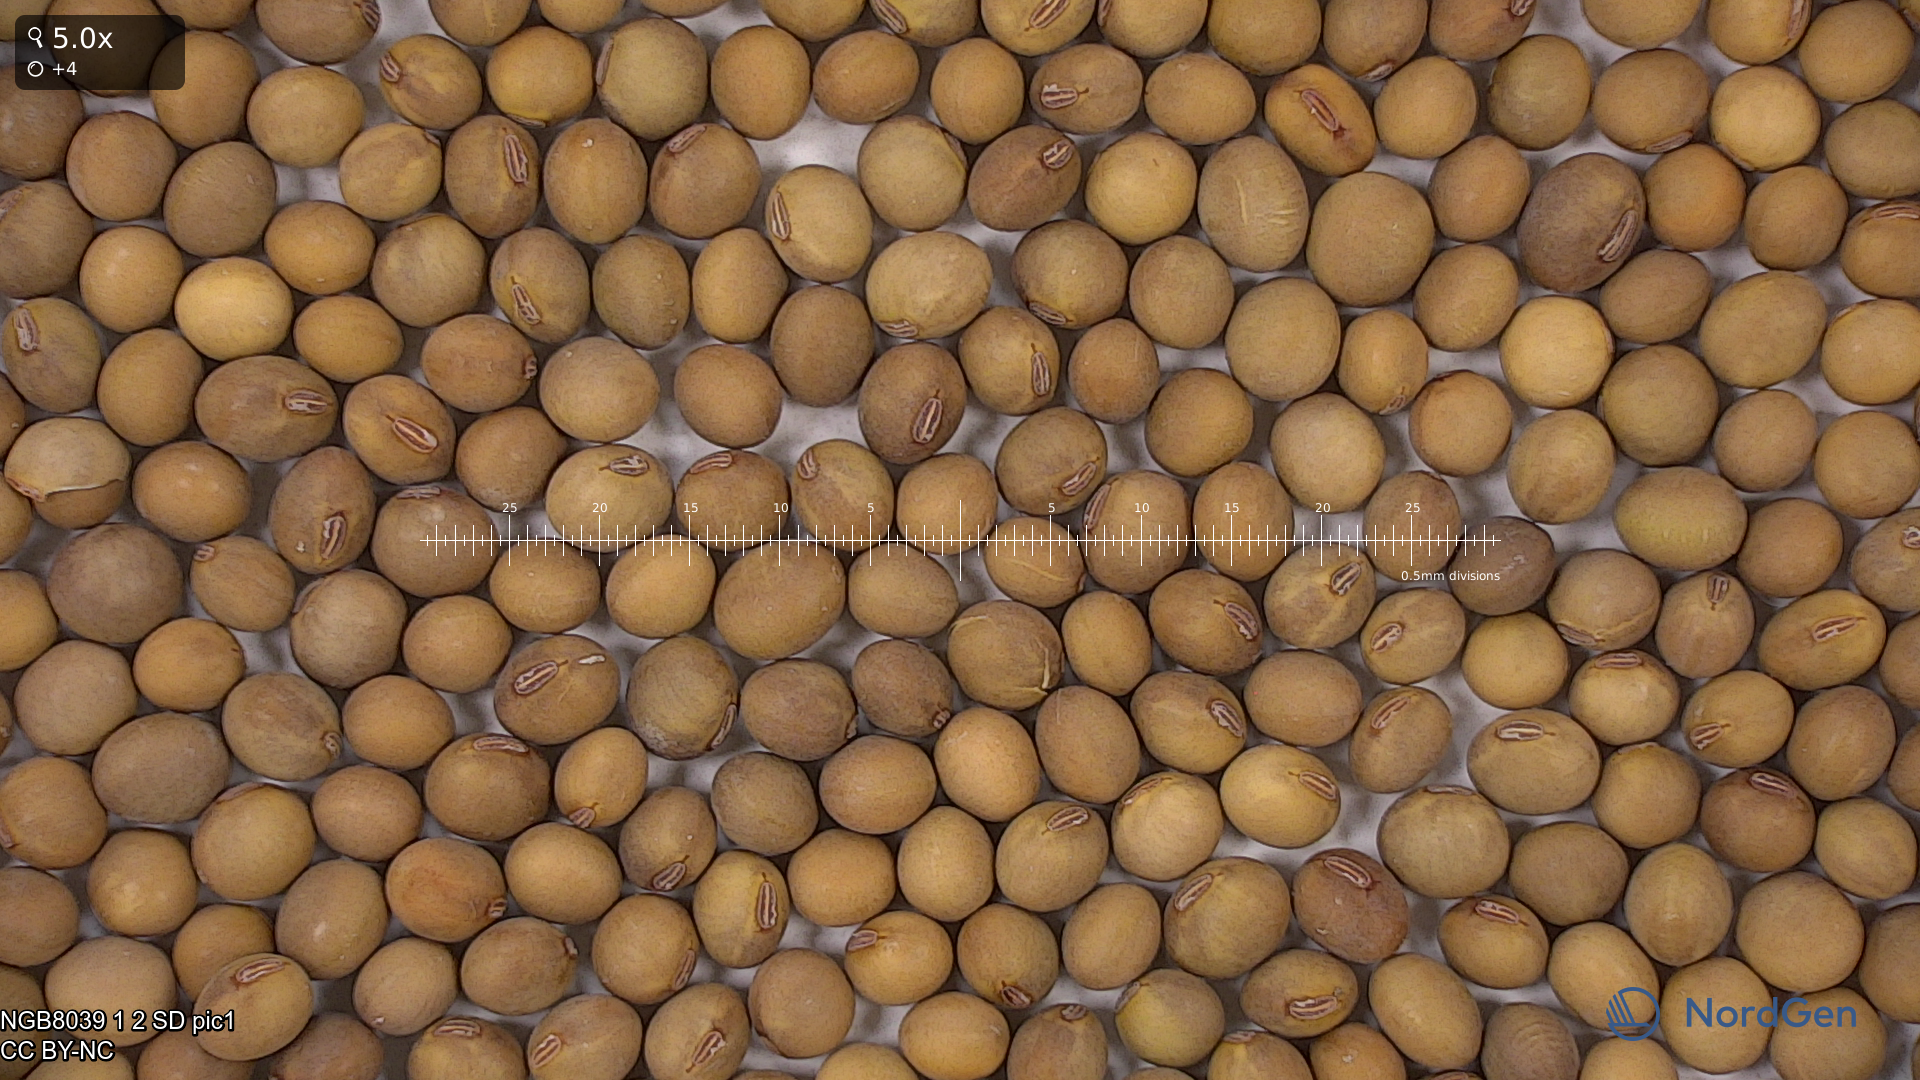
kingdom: Plantae
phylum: Tracheophyta
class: Magnoliopsida
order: Fabales
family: Fabaceae
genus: Glycine
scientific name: Glycine max
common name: Soya-bean
